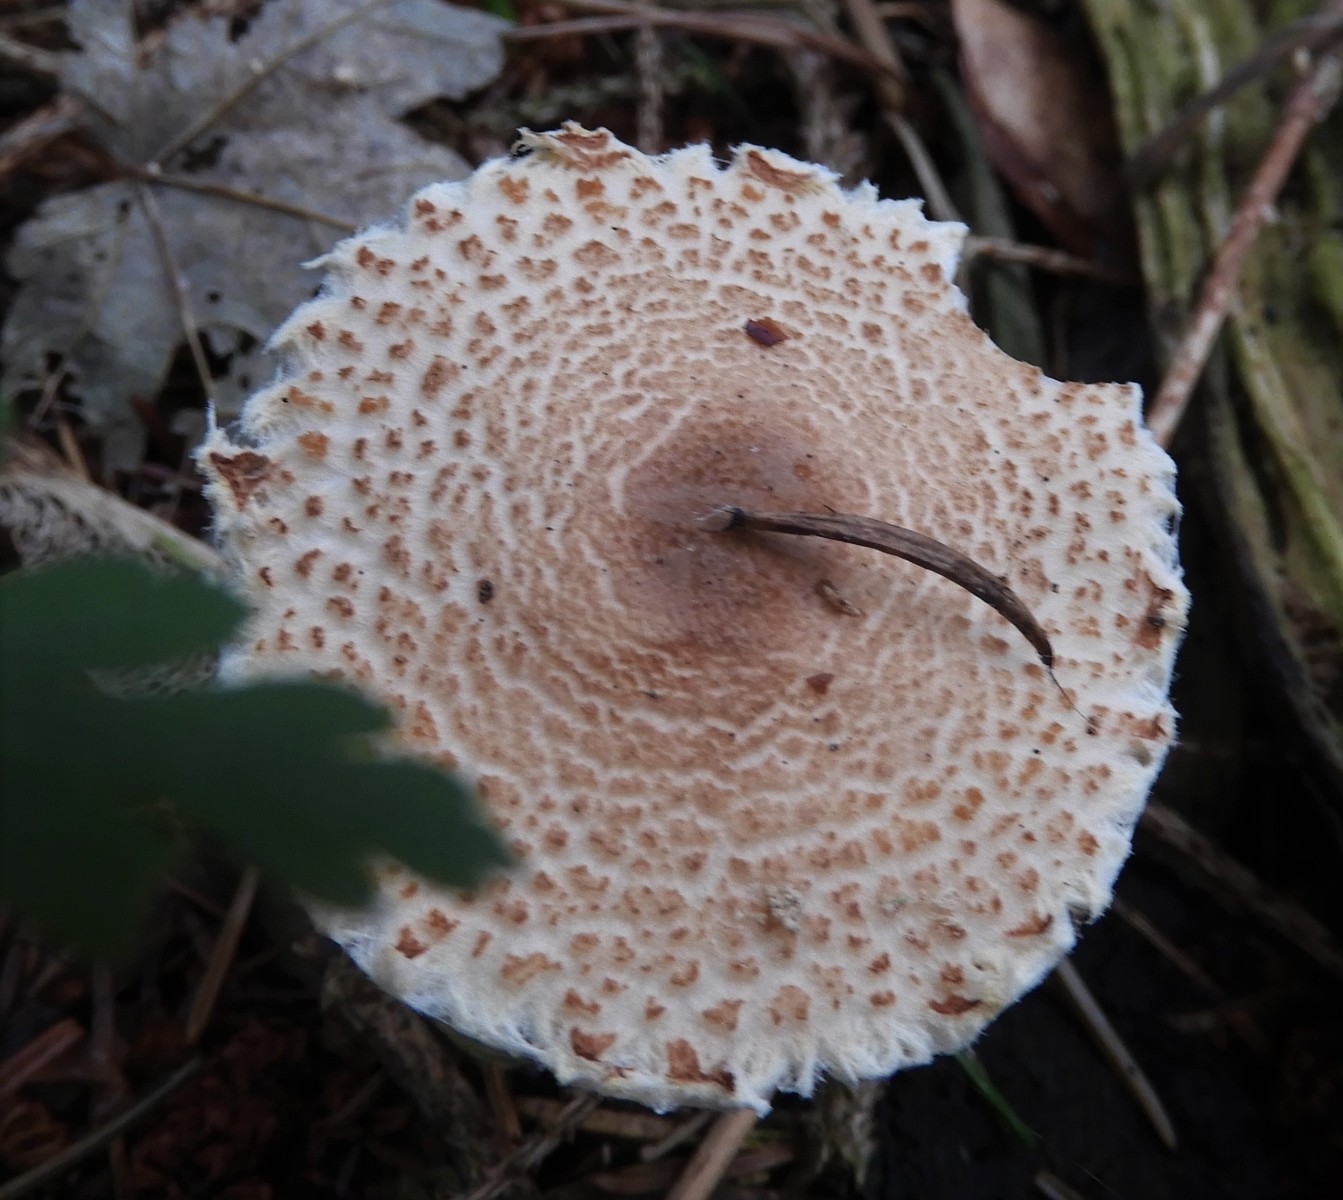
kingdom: Fungi
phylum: Basidiomycota
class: Agaricomycetes
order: Agaricales
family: Agaricaceae
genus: Lepiota
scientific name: Lepiota magnispora
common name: gulfnugget parasolhat
